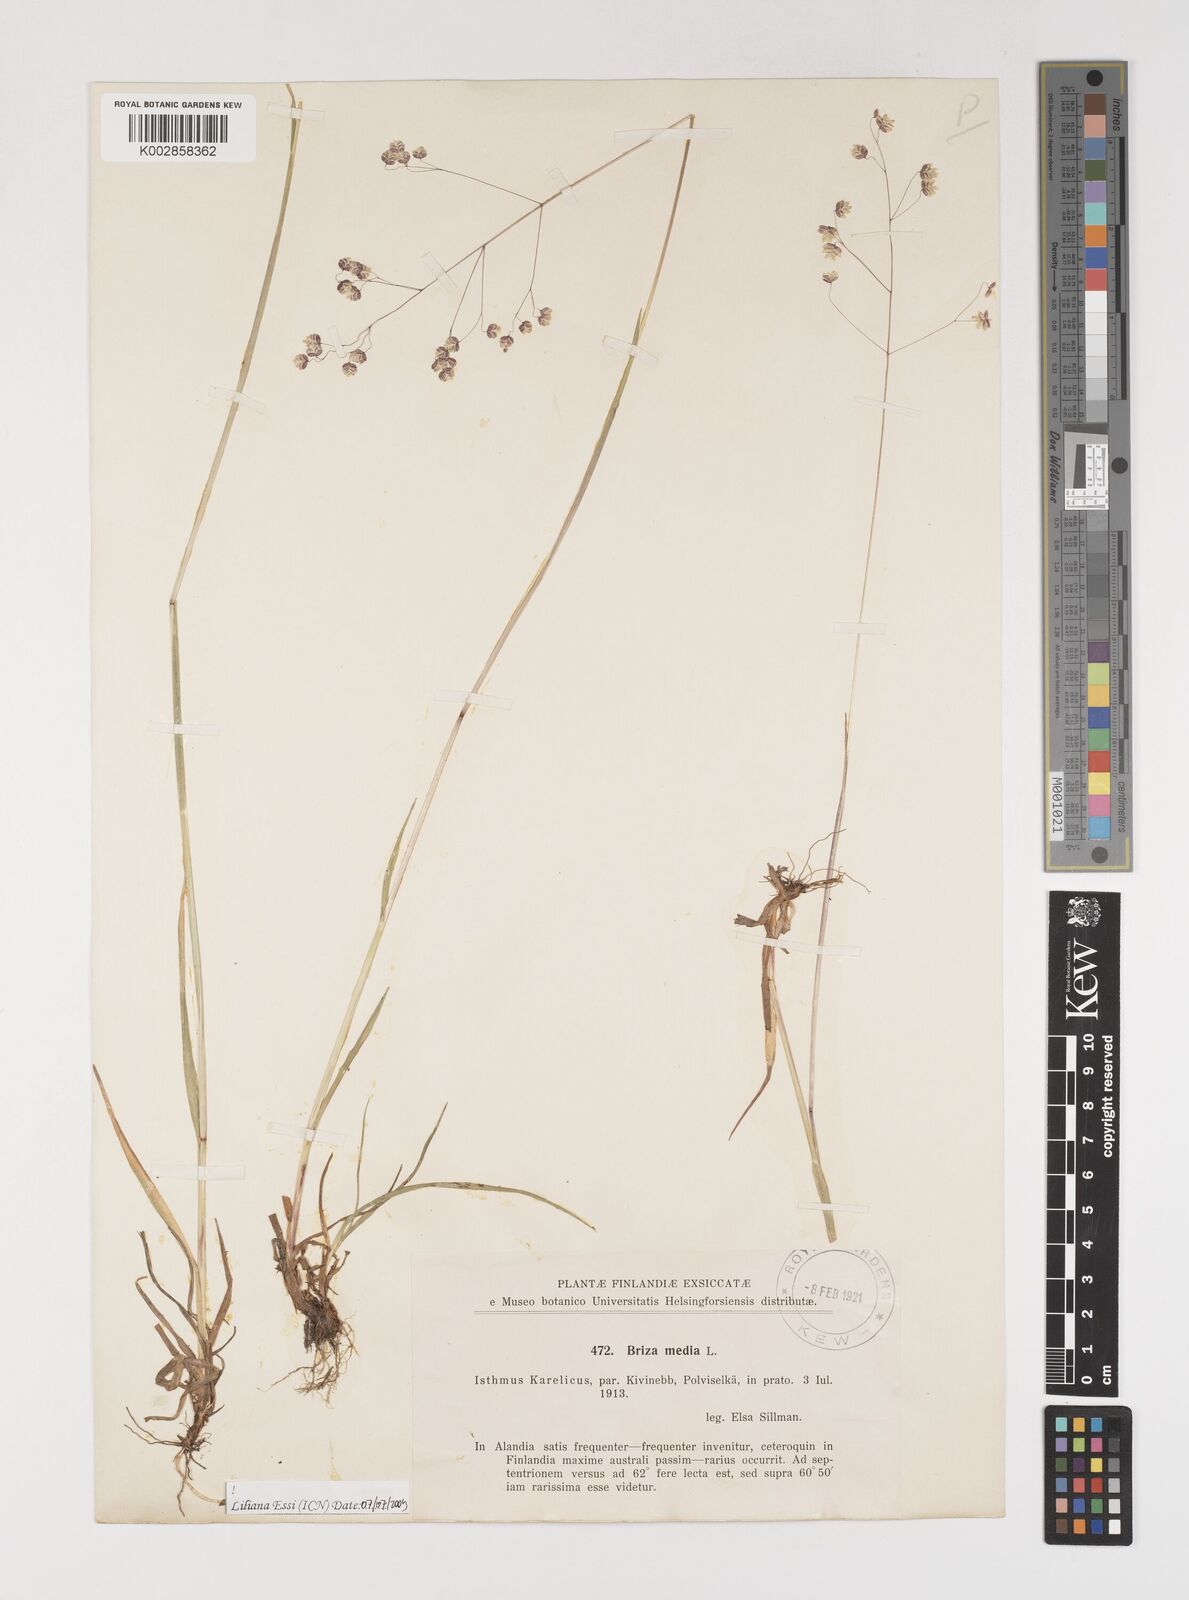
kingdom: Plantae
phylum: Tracheophyta
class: Liliopsida
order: Poales
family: Poaceae
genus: Briza
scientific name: Briza media
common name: Quaking grass
